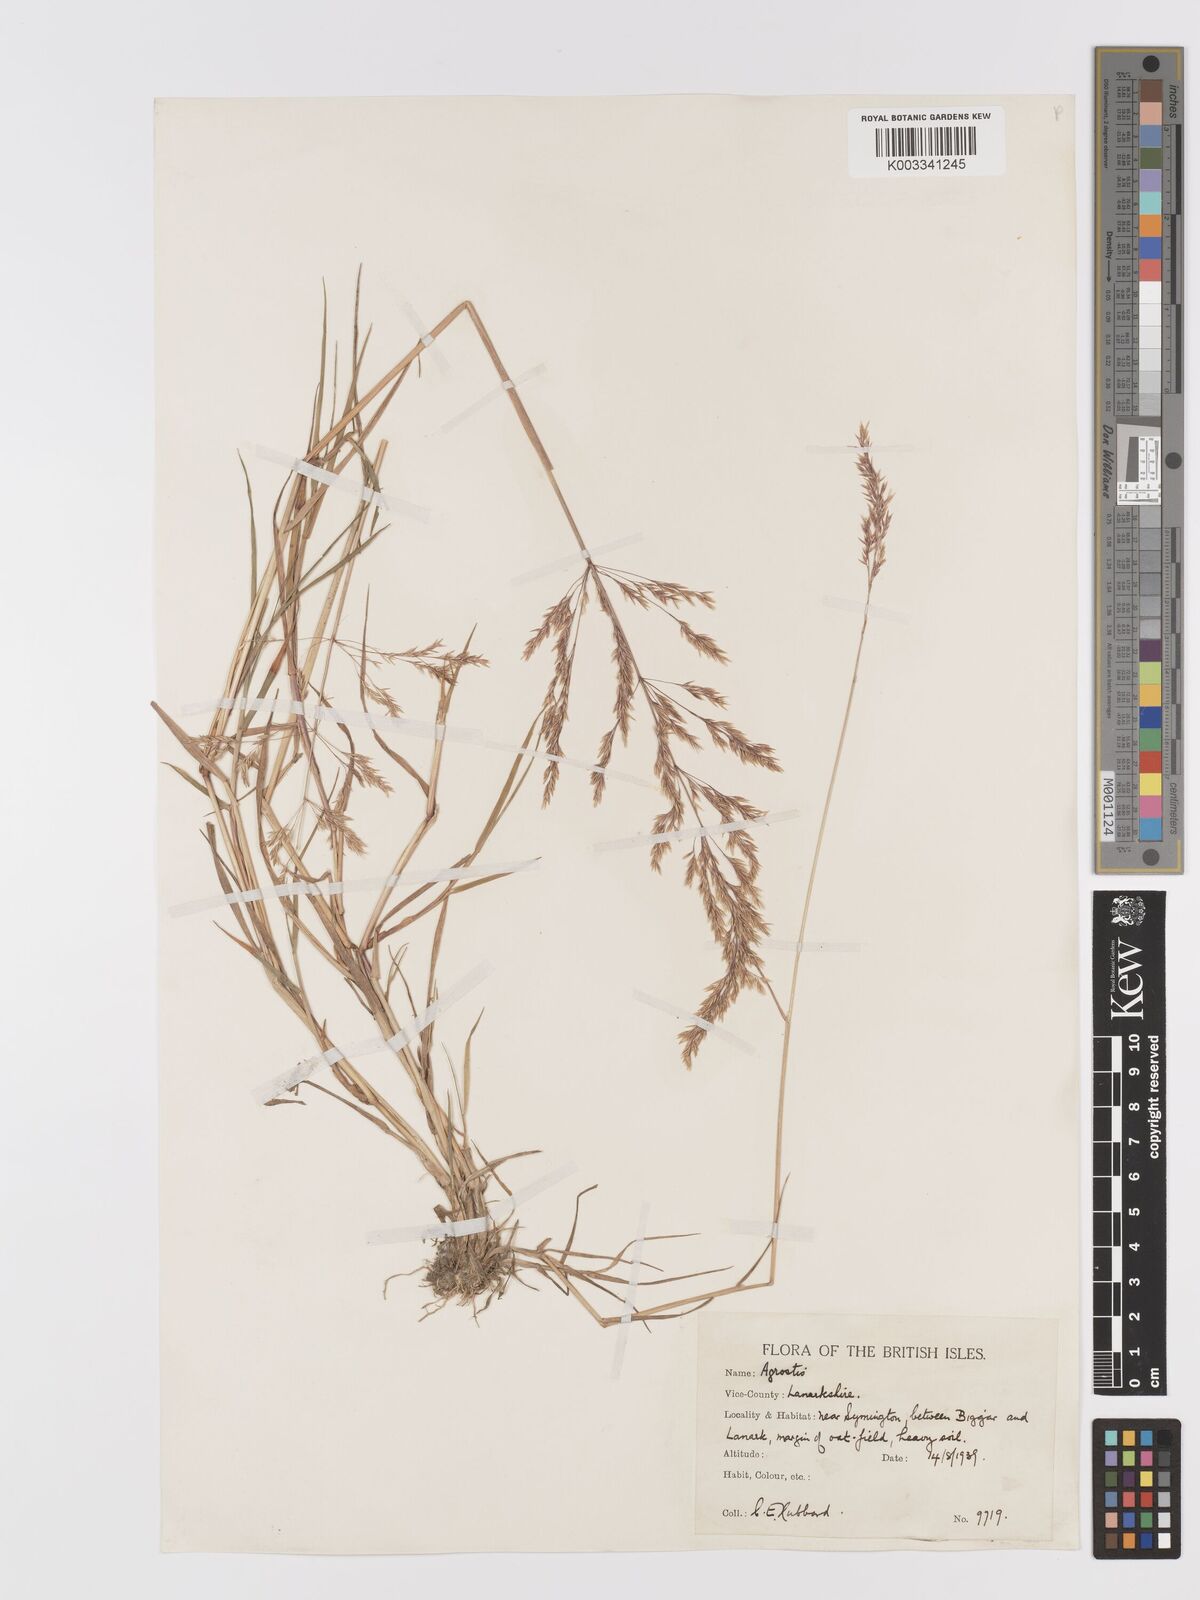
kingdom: Plantae
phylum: Tracheophyta
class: Liliopsida
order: Poales
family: Poaceae
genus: Agrostis
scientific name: Agrostis gigantea
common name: Black bent
